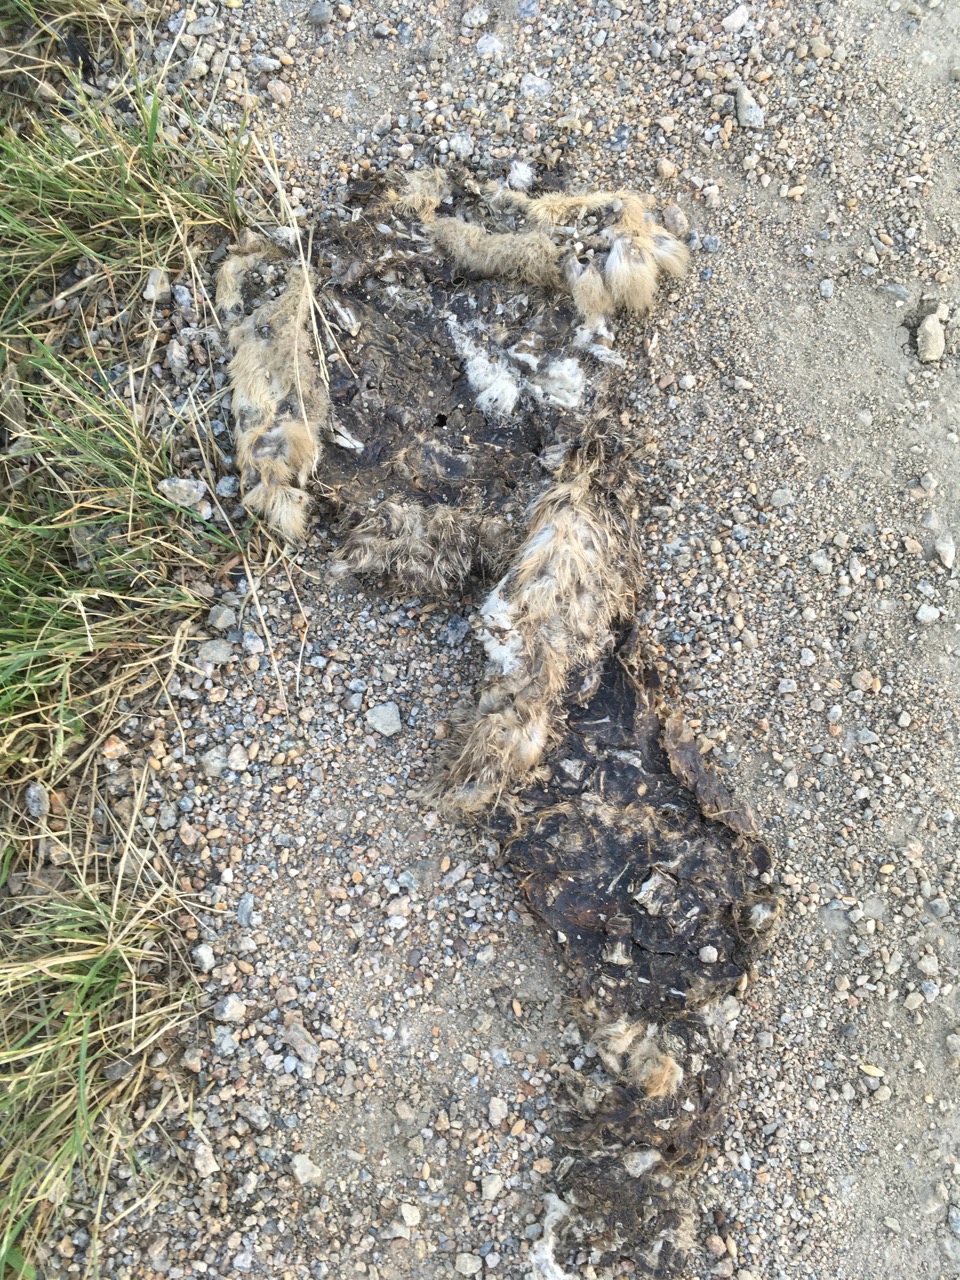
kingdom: Animalia
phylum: Chordata
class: Mammalia
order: Lagomorpha
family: Leporidae
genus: Lepus
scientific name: Lepus europaeus
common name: European hare
